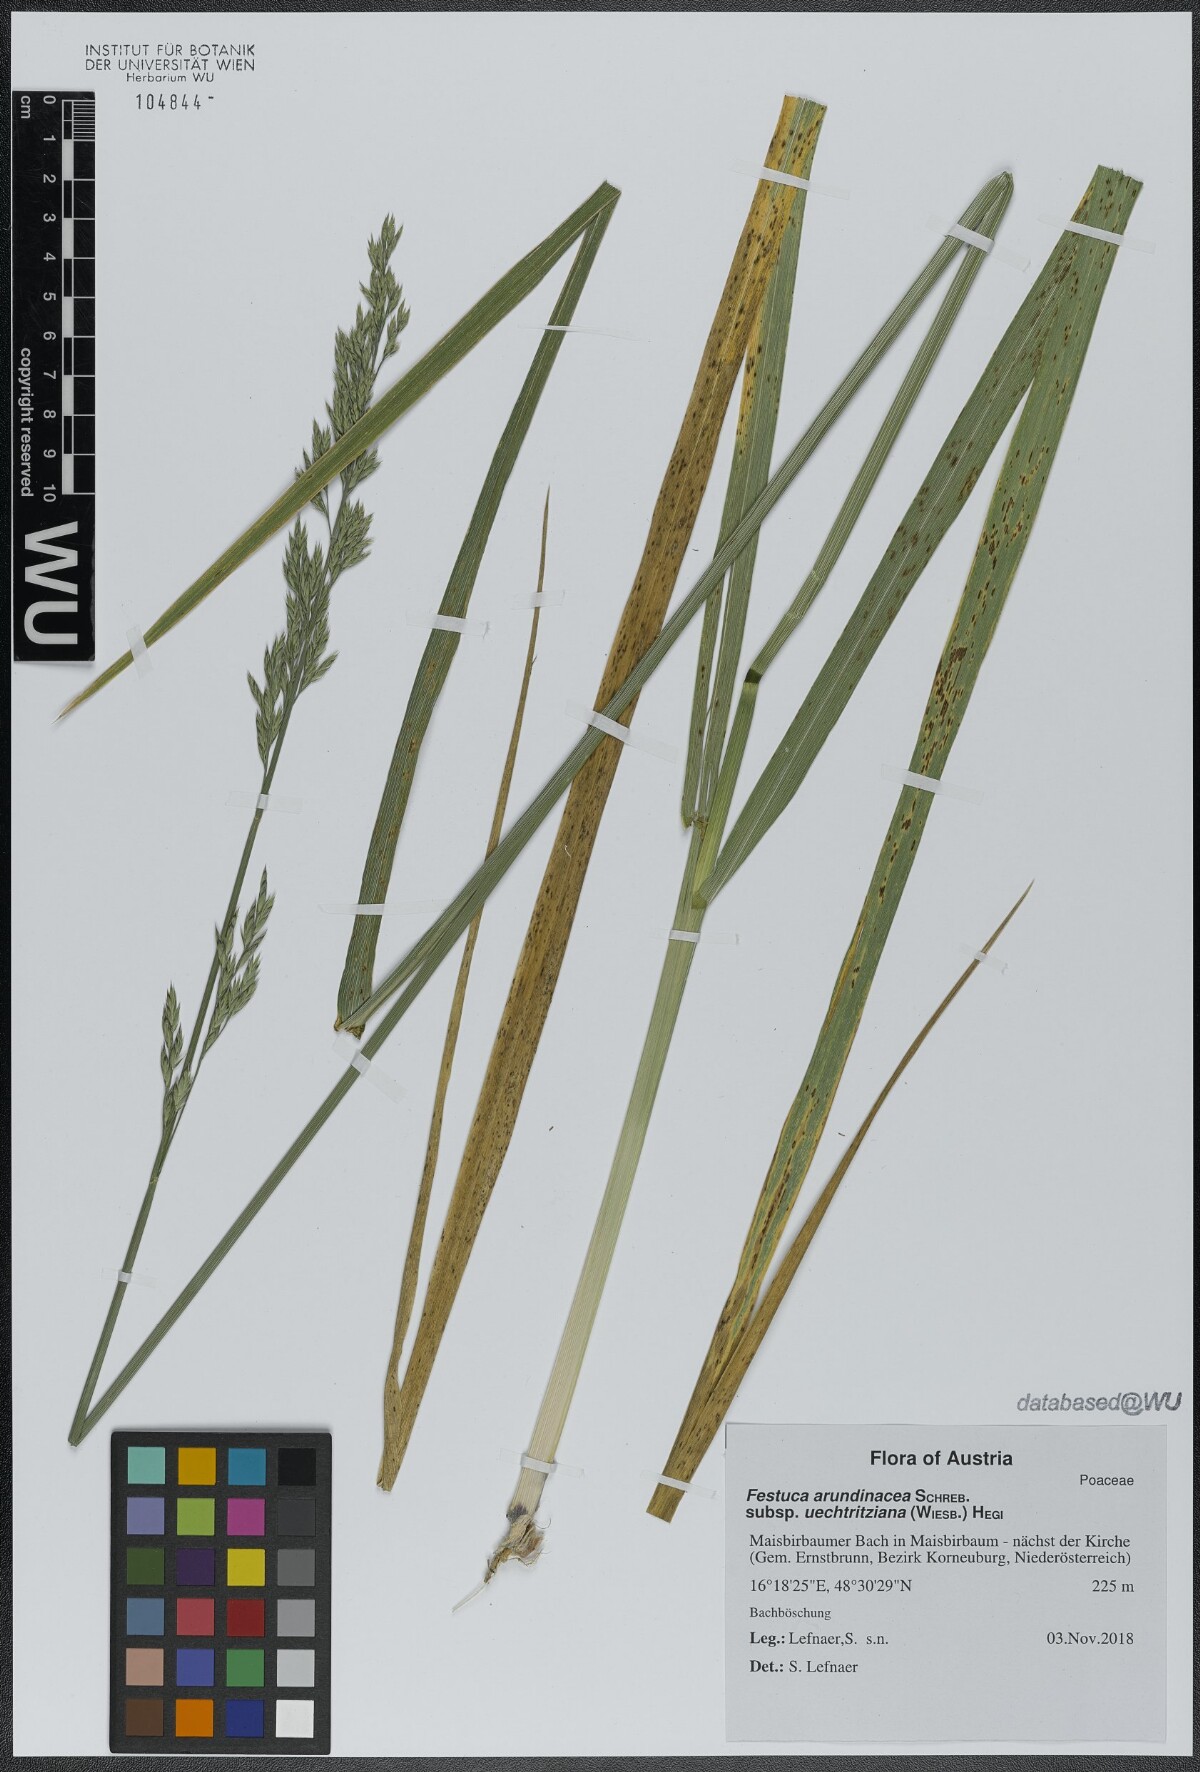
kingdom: Plantae
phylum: Tracheophyta
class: Liliopsida
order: Poales
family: Poaceae
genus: Lolium
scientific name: Lolium arundinaceum
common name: Reed fescue
